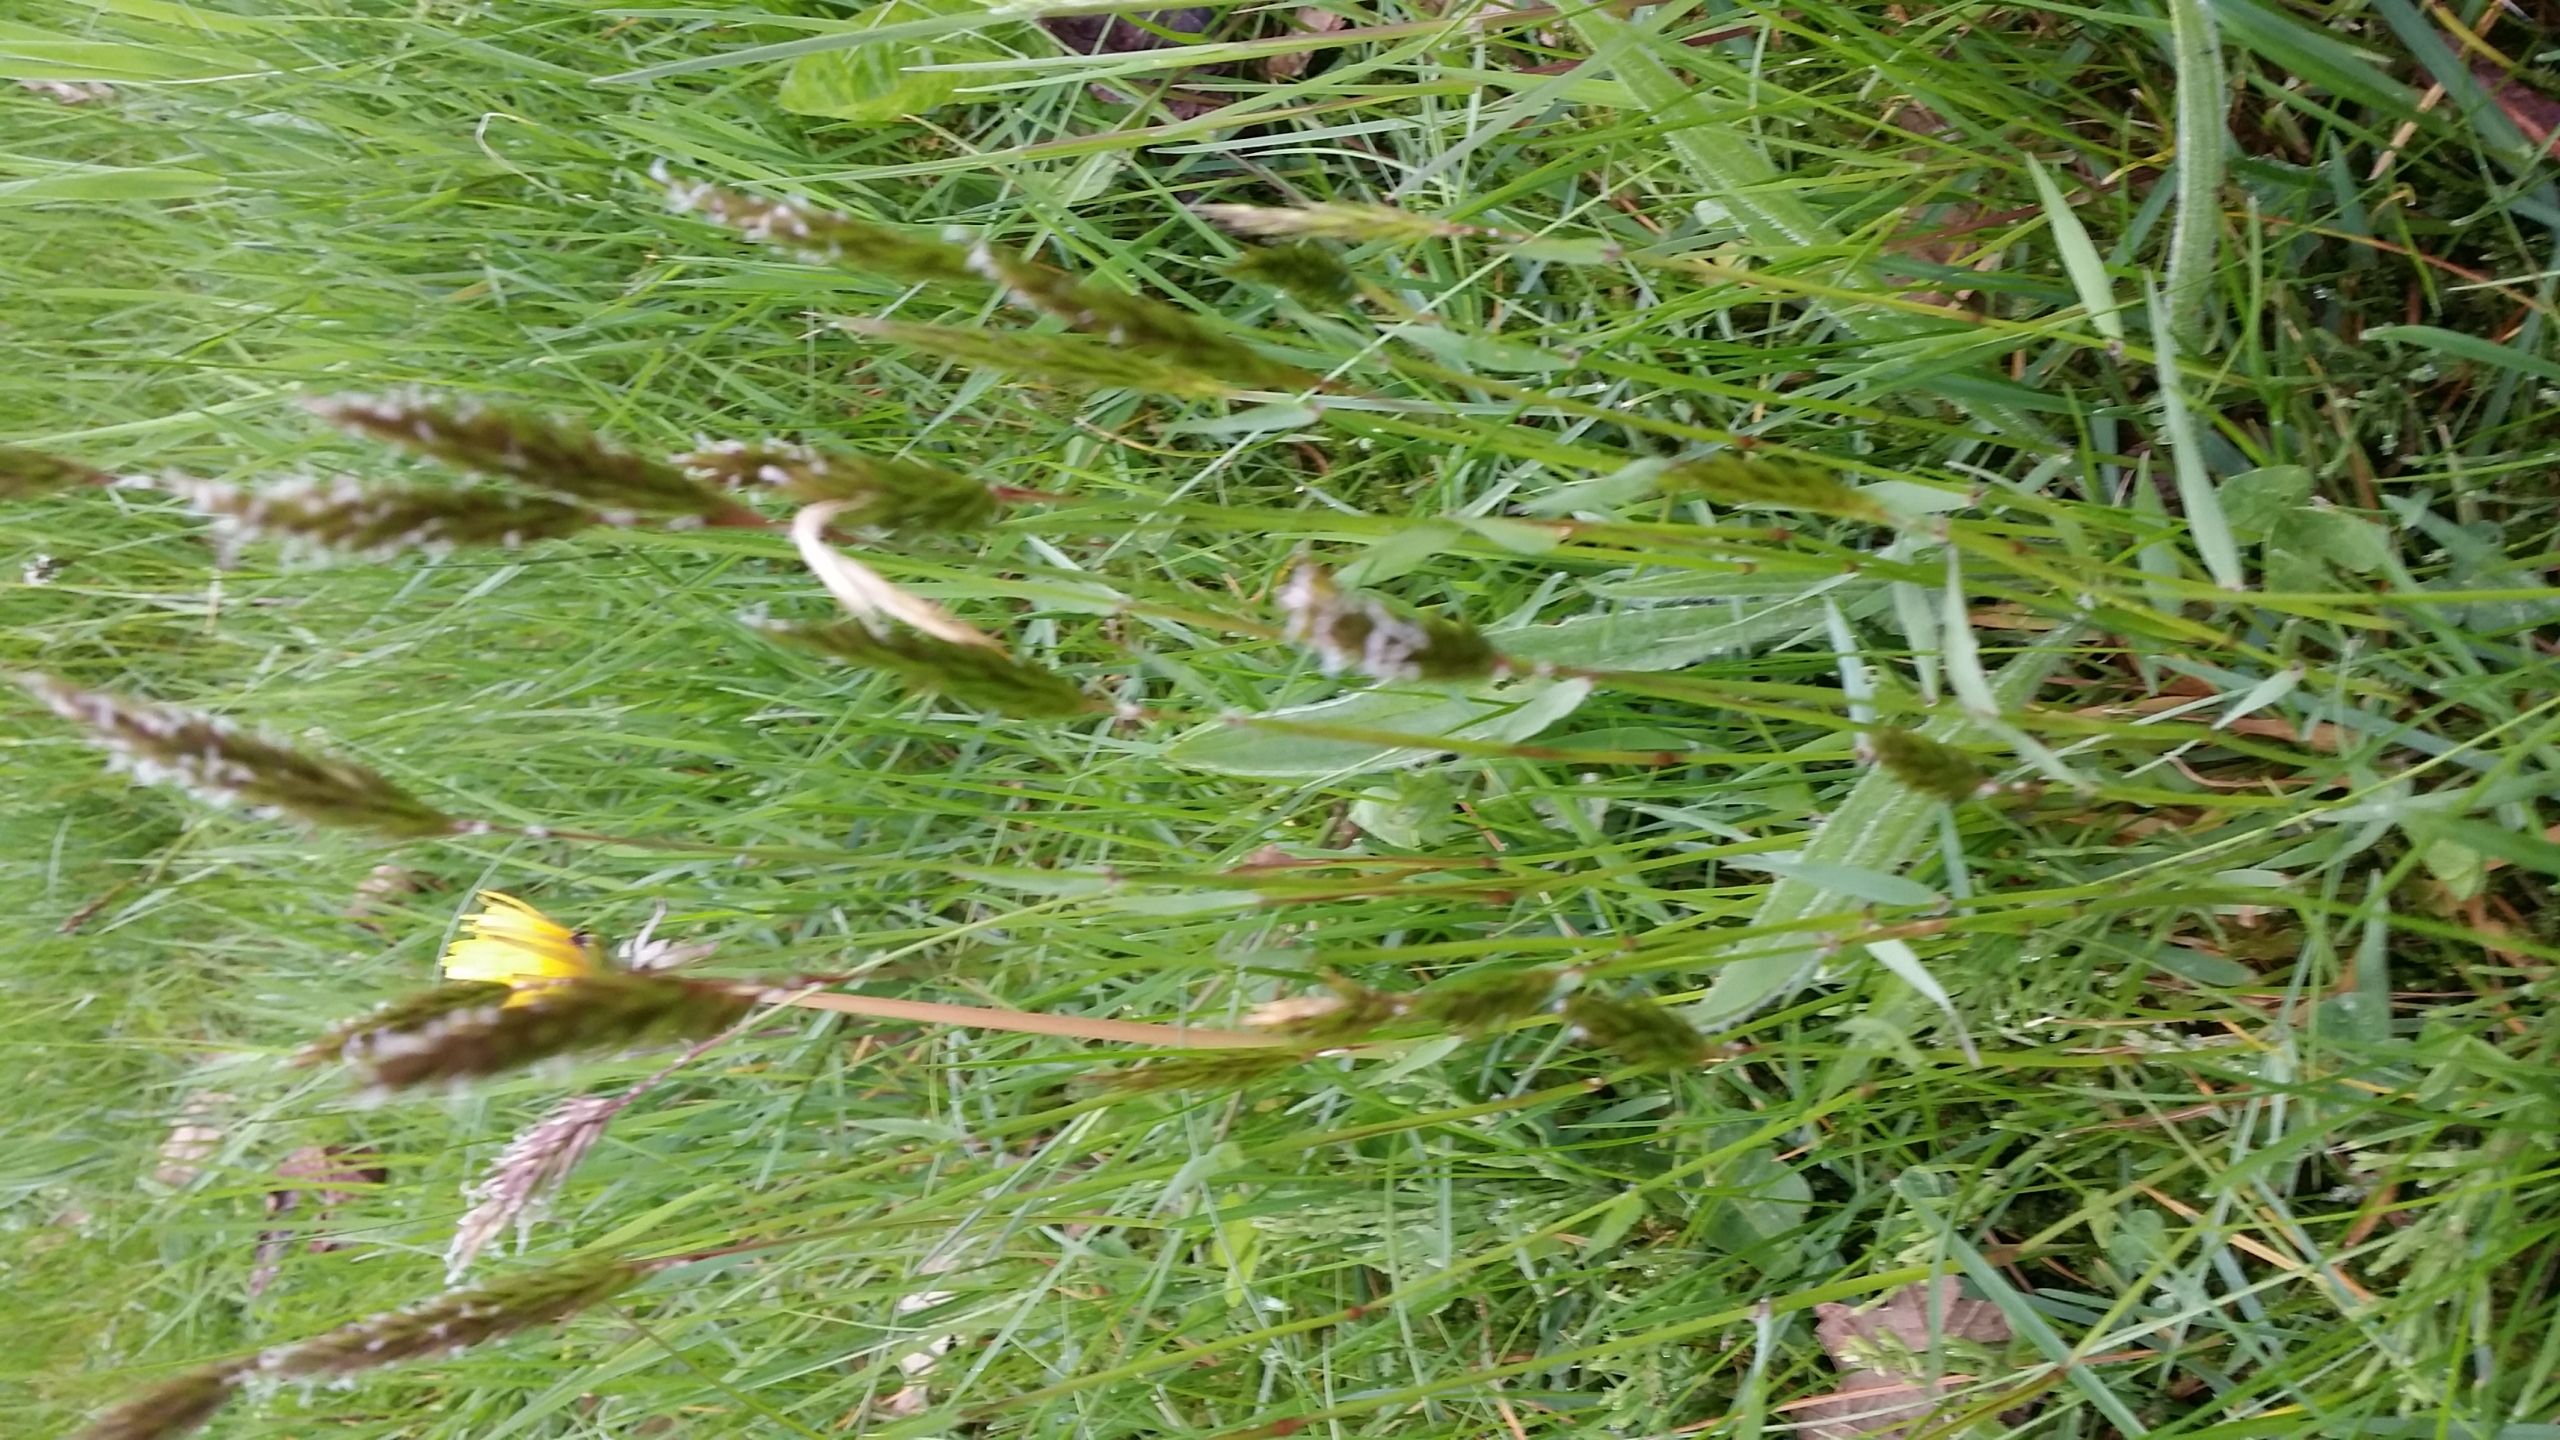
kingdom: Plantae
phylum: Tracheophyta
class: Liliopsida
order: Poales
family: Poaceae
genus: Anthoxanthum
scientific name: Anthoxanthum odoratum
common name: Vellugtende gulaks
